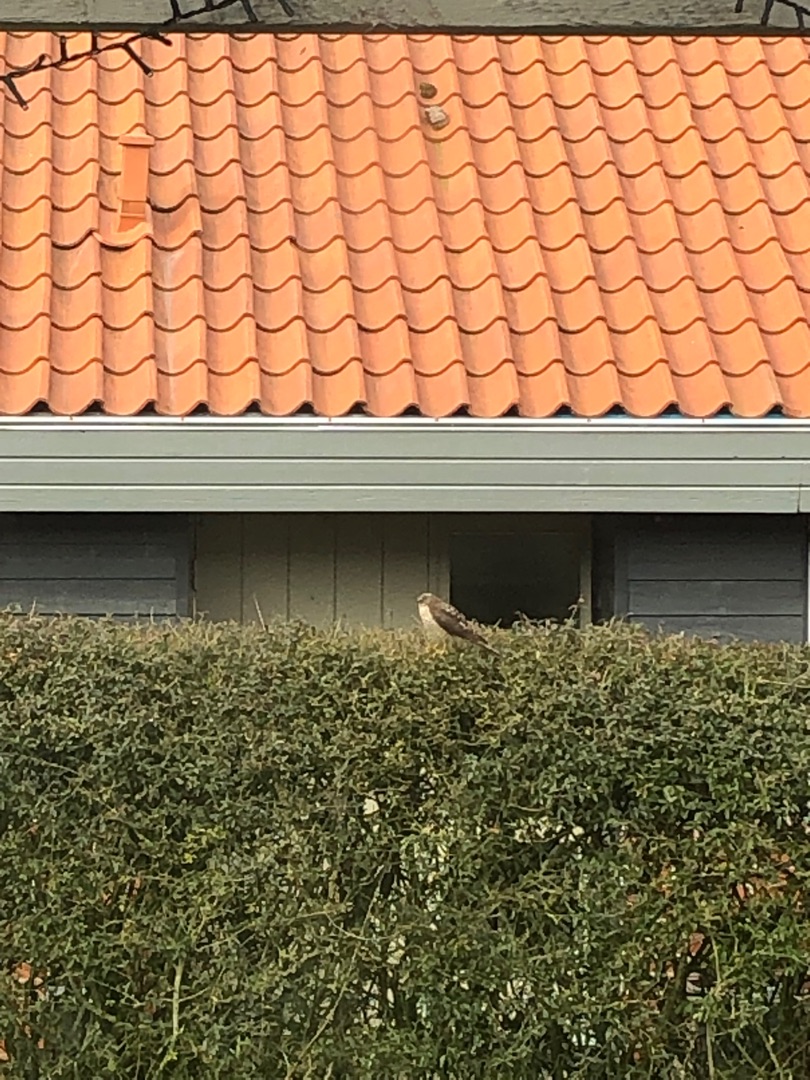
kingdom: Animalia
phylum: Chordata
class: Aves
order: Accipitriformes
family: Accipitridae
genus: Accipiter
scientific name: Accipiter nisus
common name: Spurvehøg
